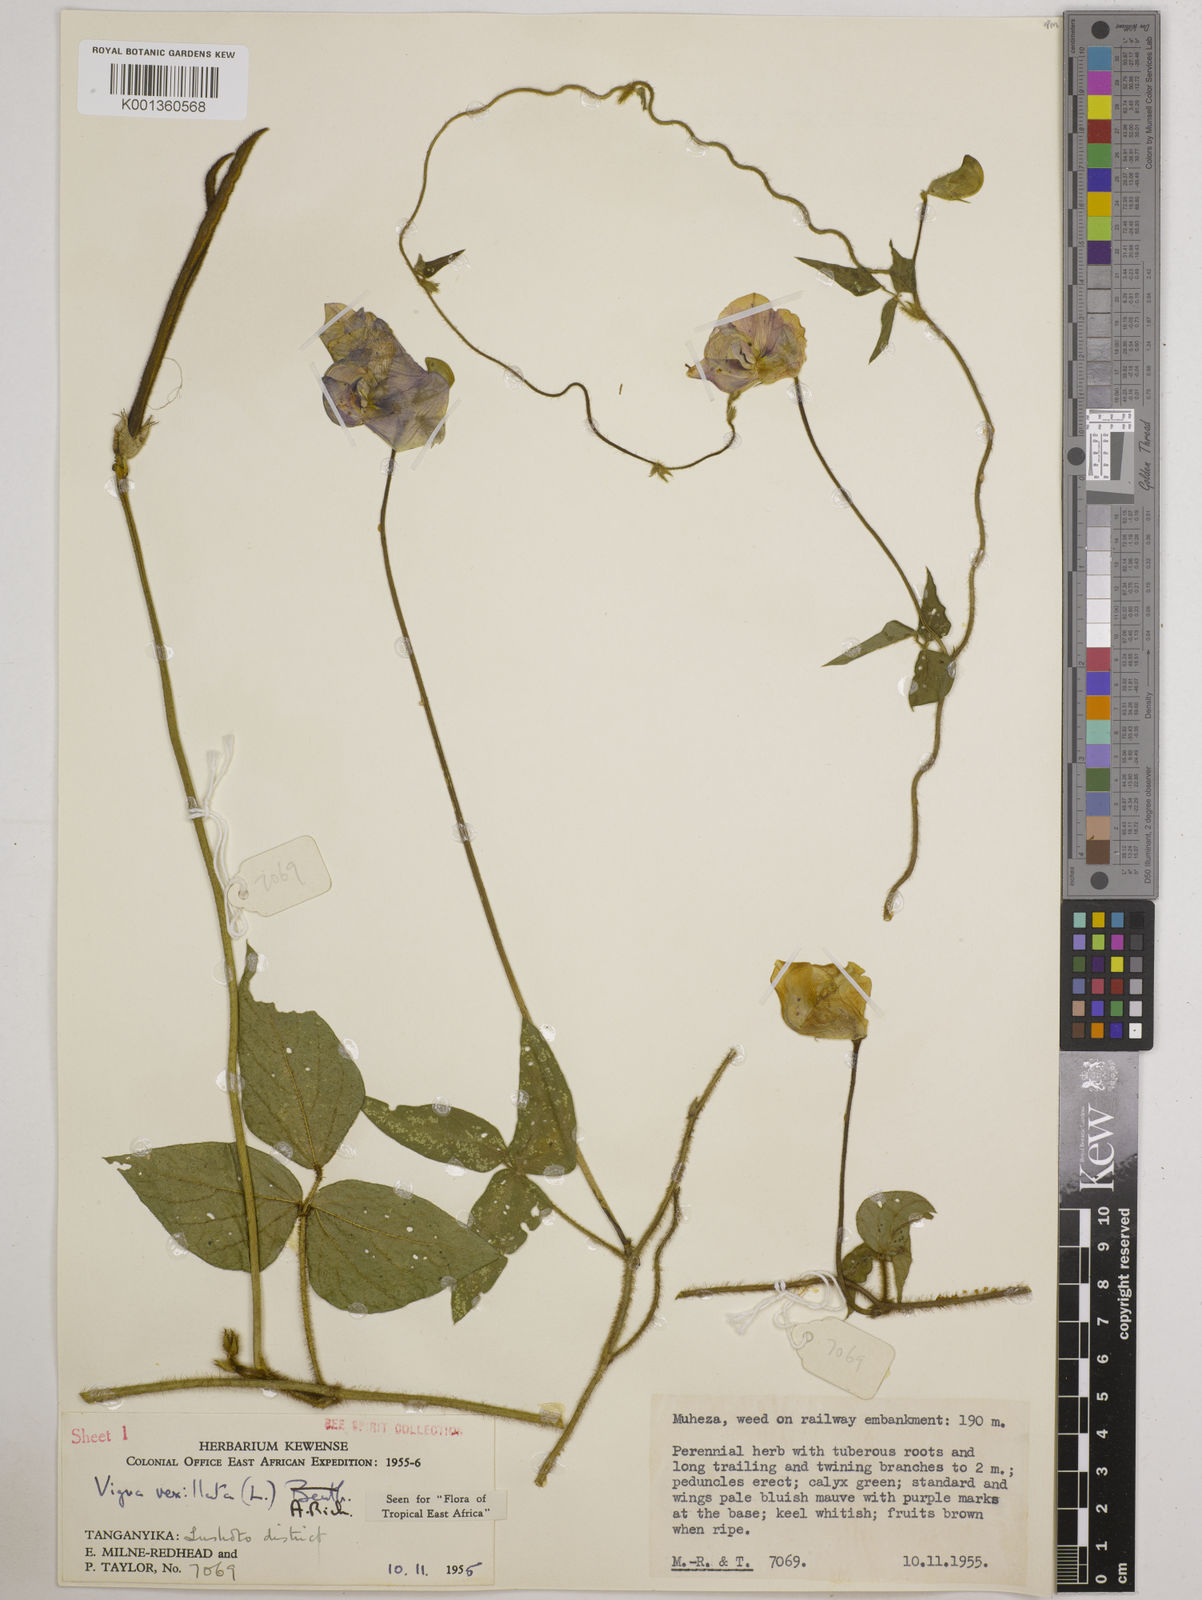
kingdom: Plantae
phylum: Tracheophyta
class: Magnoliopsida
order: Fabales
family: Fabaceae
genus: Vigna
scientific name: Vigna vexillata
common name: Zombi pea
